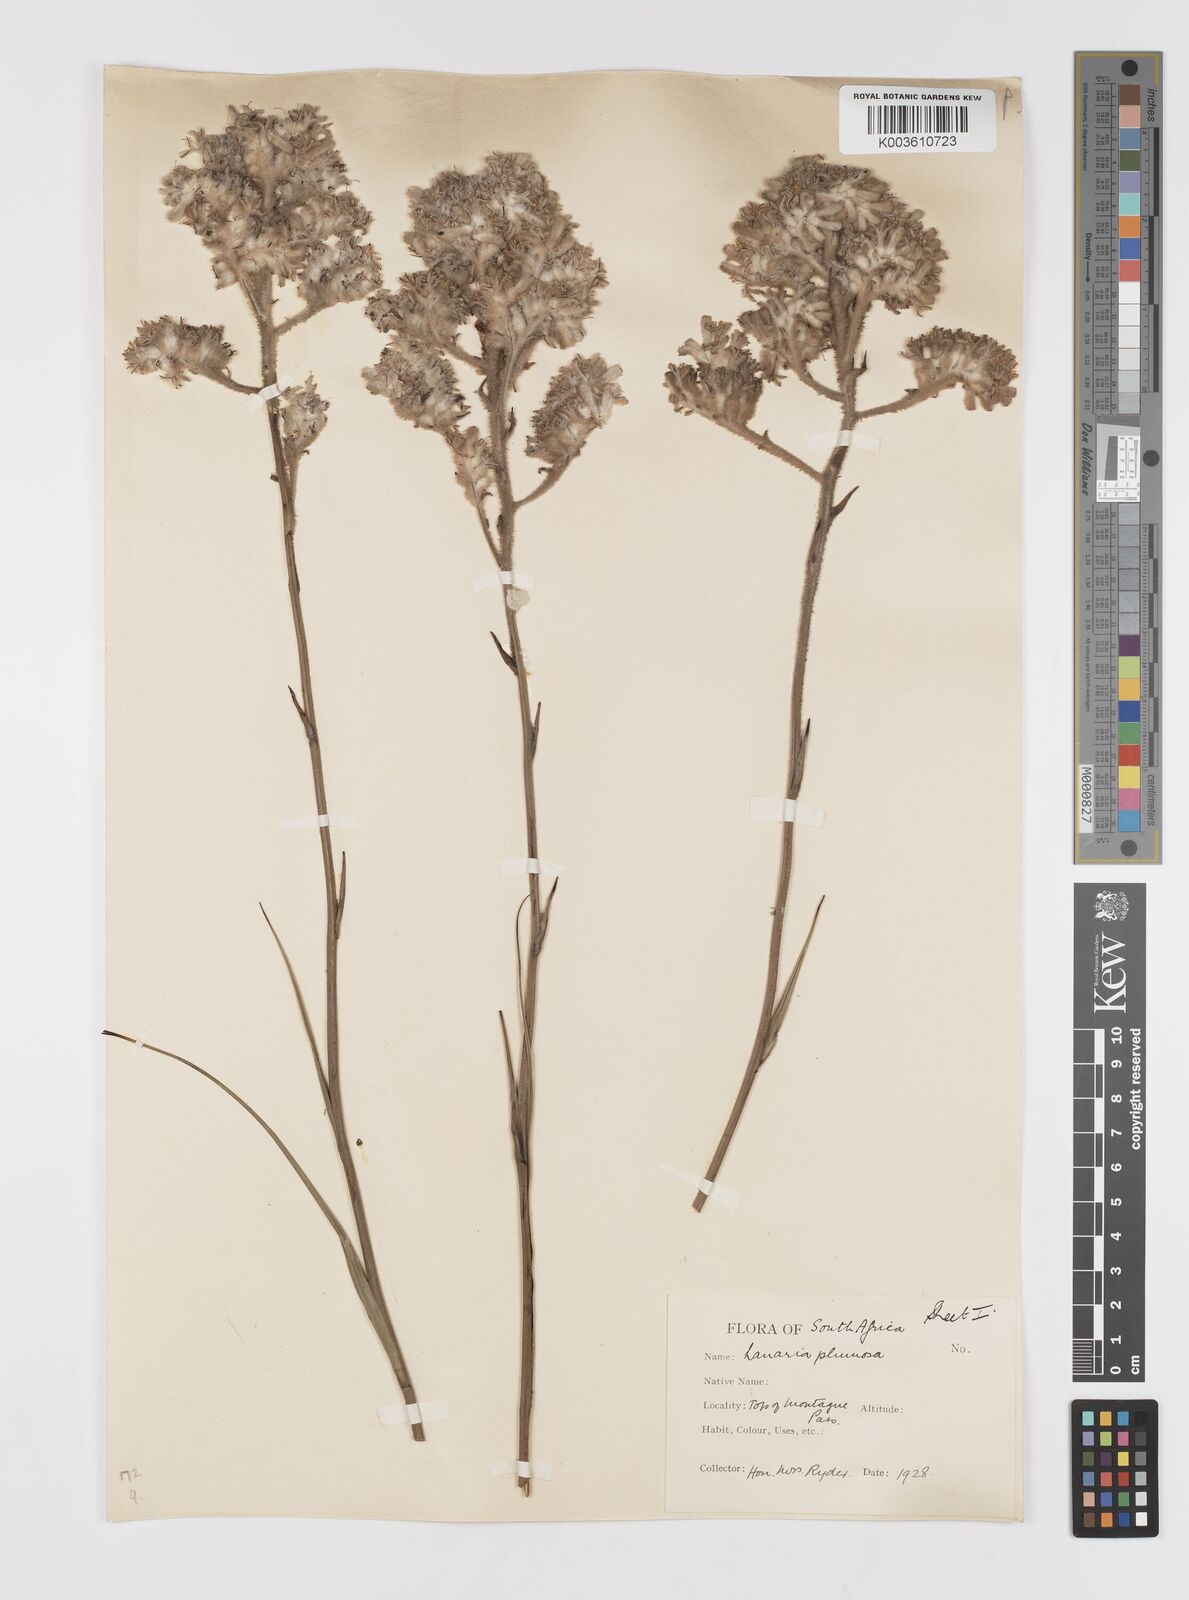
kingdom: Plantae
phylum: Tracheophyta
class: Liliopsida
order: Asparagales
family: Lanariaceae
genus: Lanaria
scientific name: Lanaria lanata
